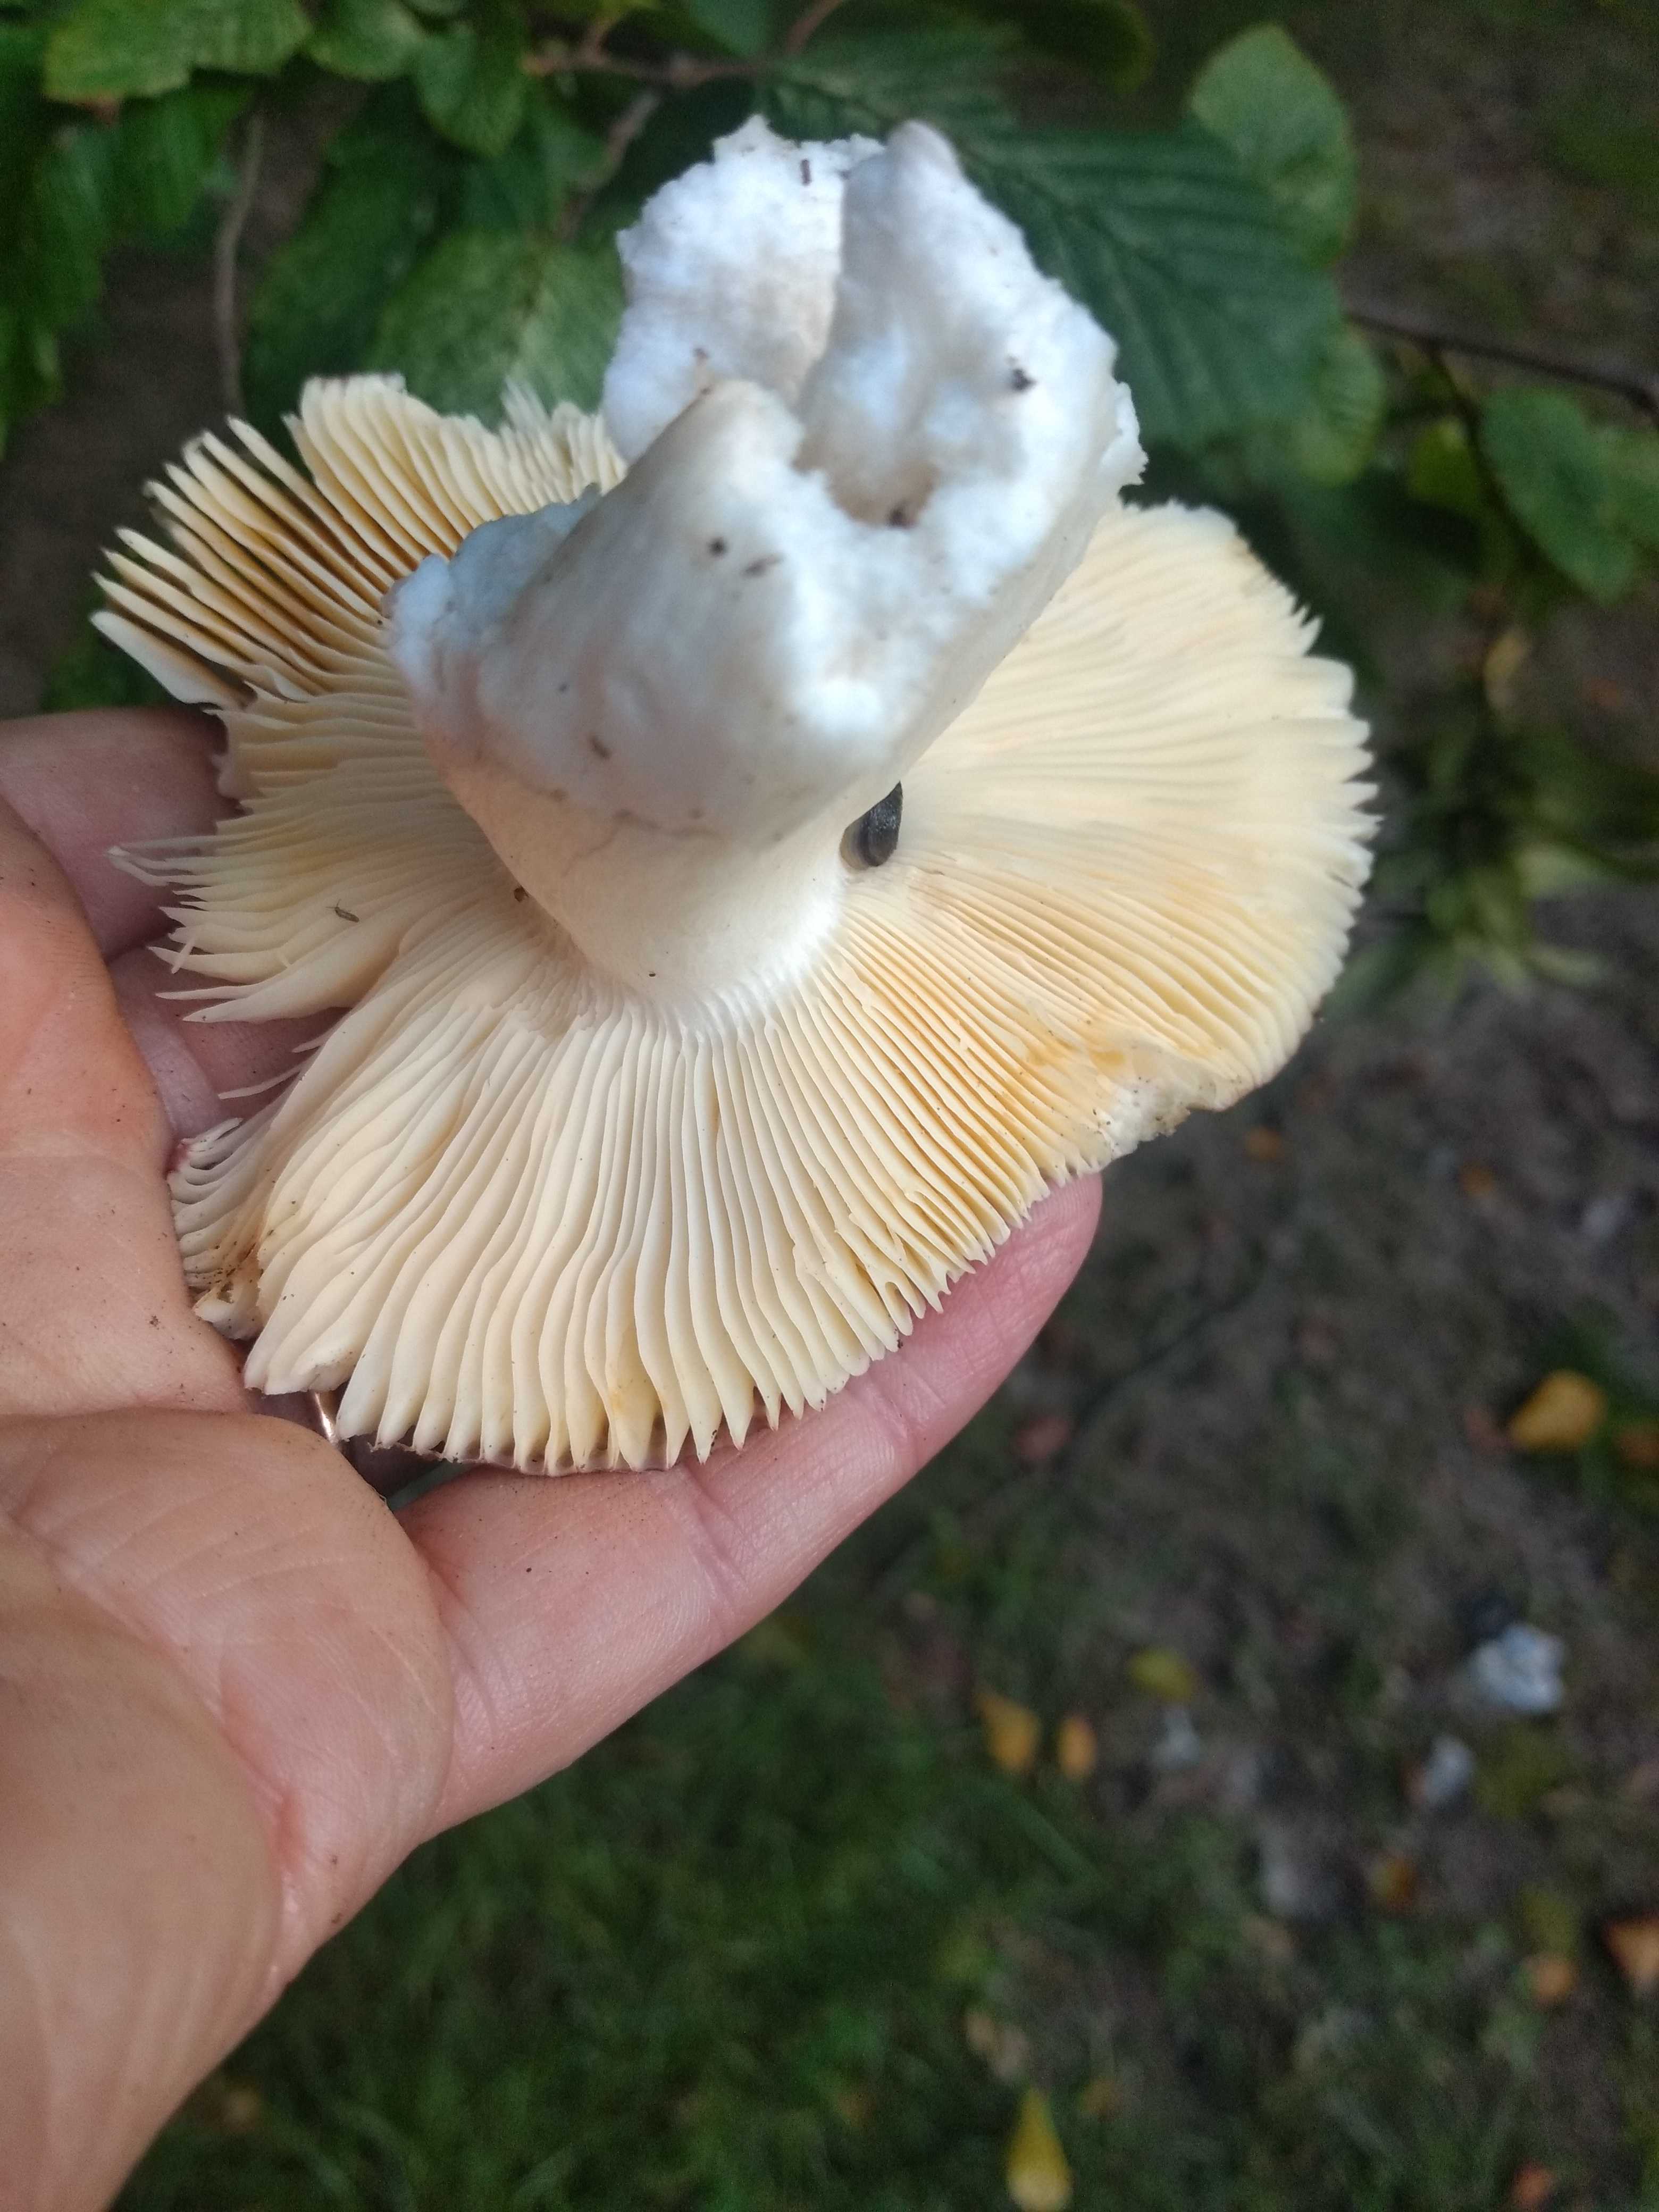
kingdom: Fungi
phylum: Basidiomycota
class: Agaricomycetes
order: Russulales
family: Russulaceae
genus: Russula
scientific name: Russula
